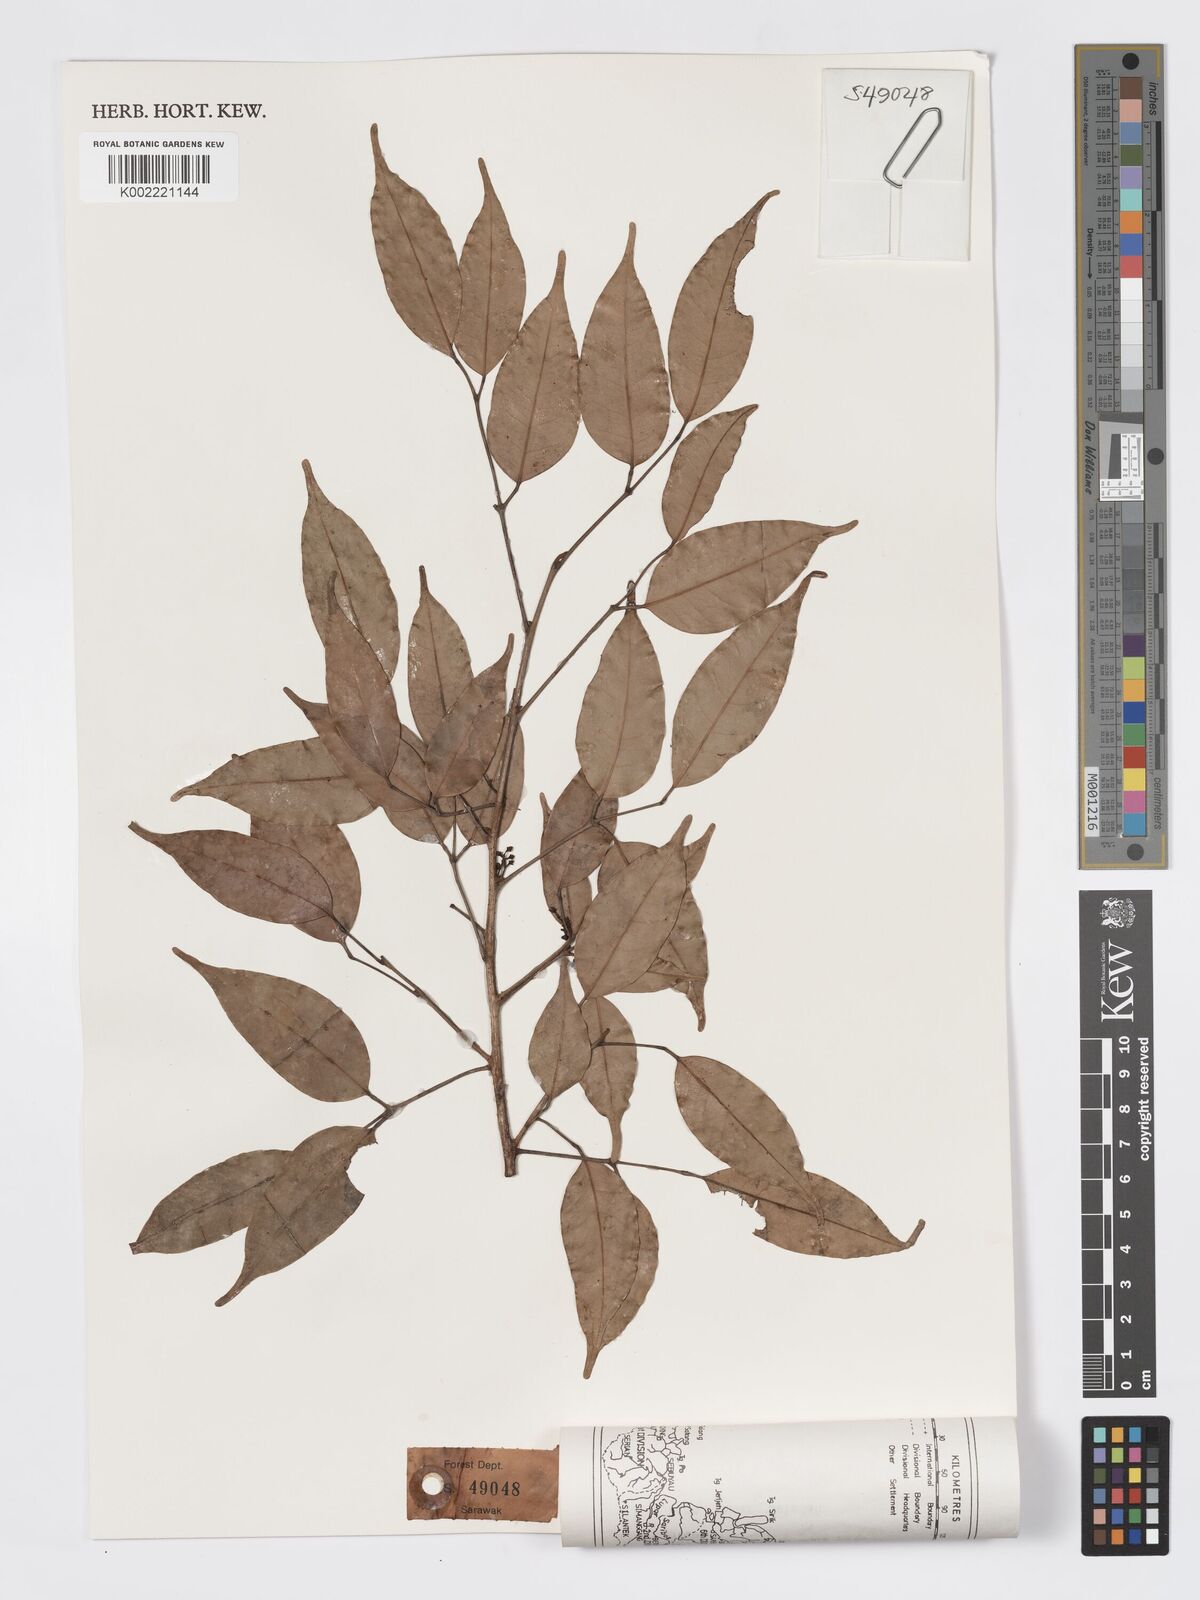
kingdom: Plantae
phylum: Tracheophyta
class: Magnoliopsida
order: Sapindales
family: Burseraceae
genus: Santiria
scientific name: Santiria apiculata
